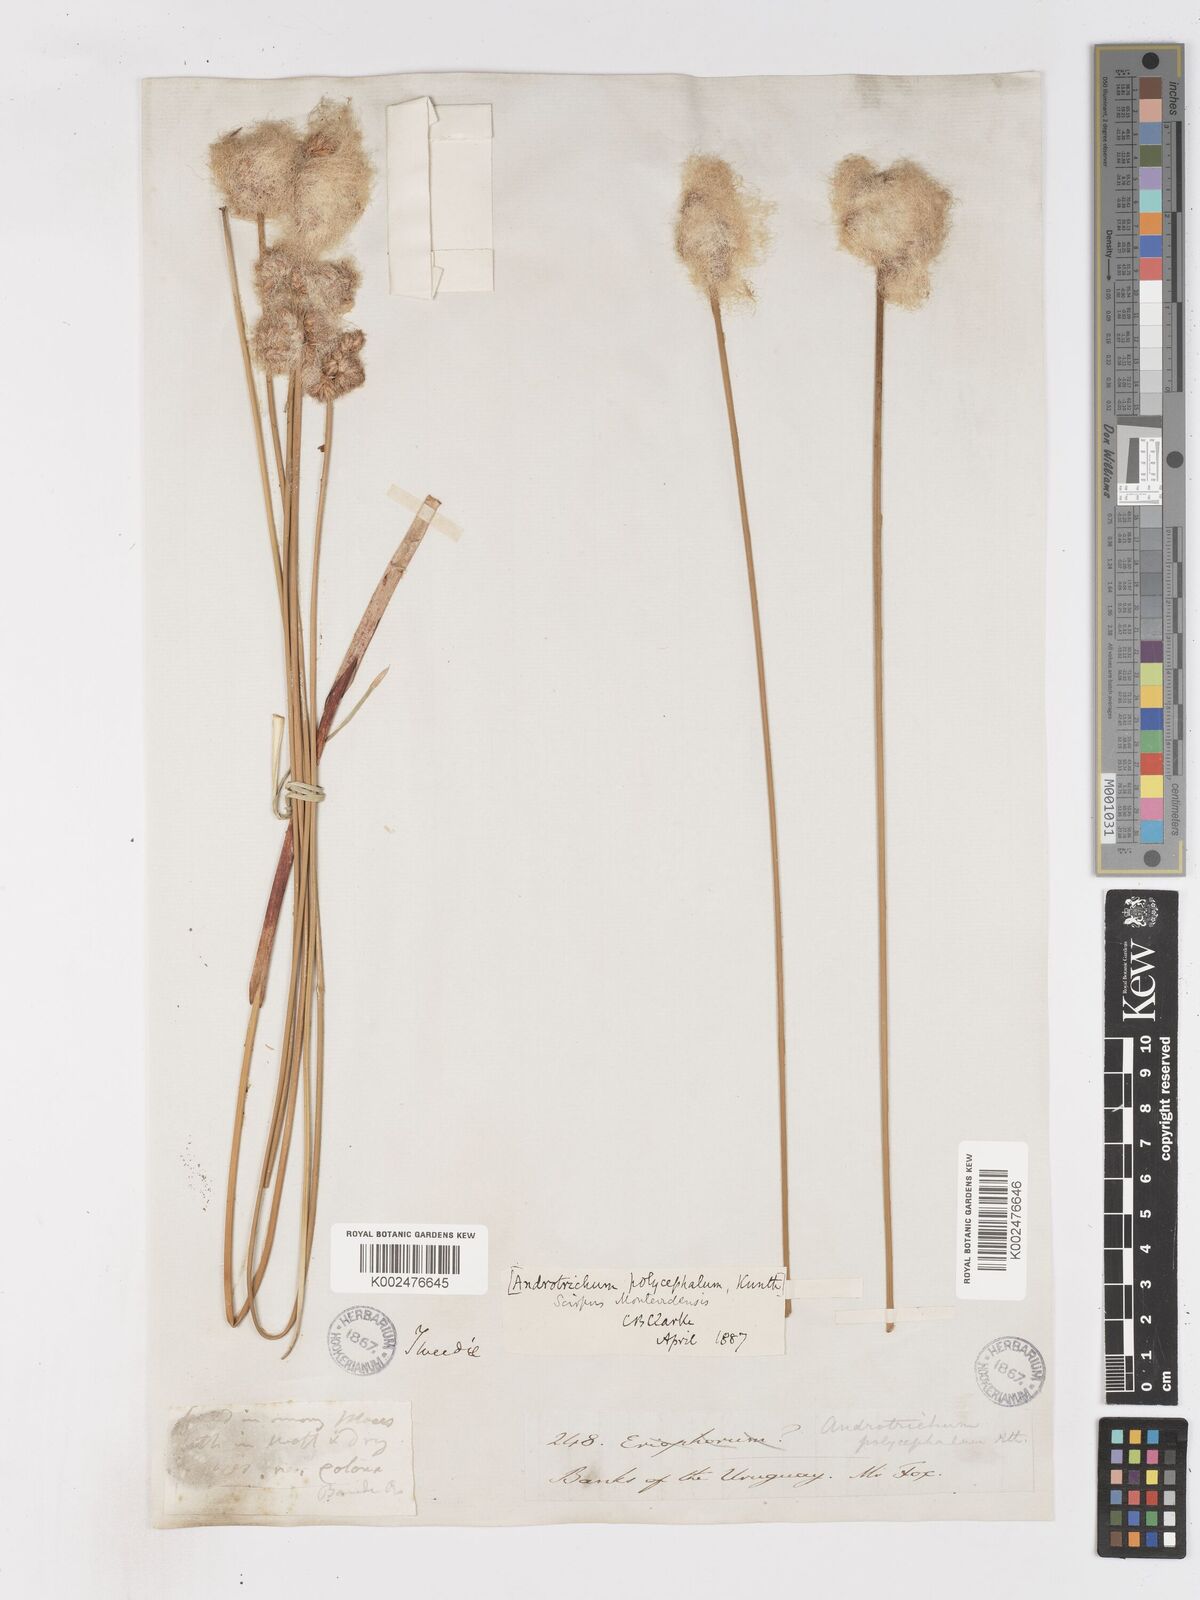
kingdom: Plantae
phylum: Tracheophyta
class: Liliopsida
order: Poales
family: Cyperaceae
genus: Cyperus
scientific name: Cyperus trigynus
